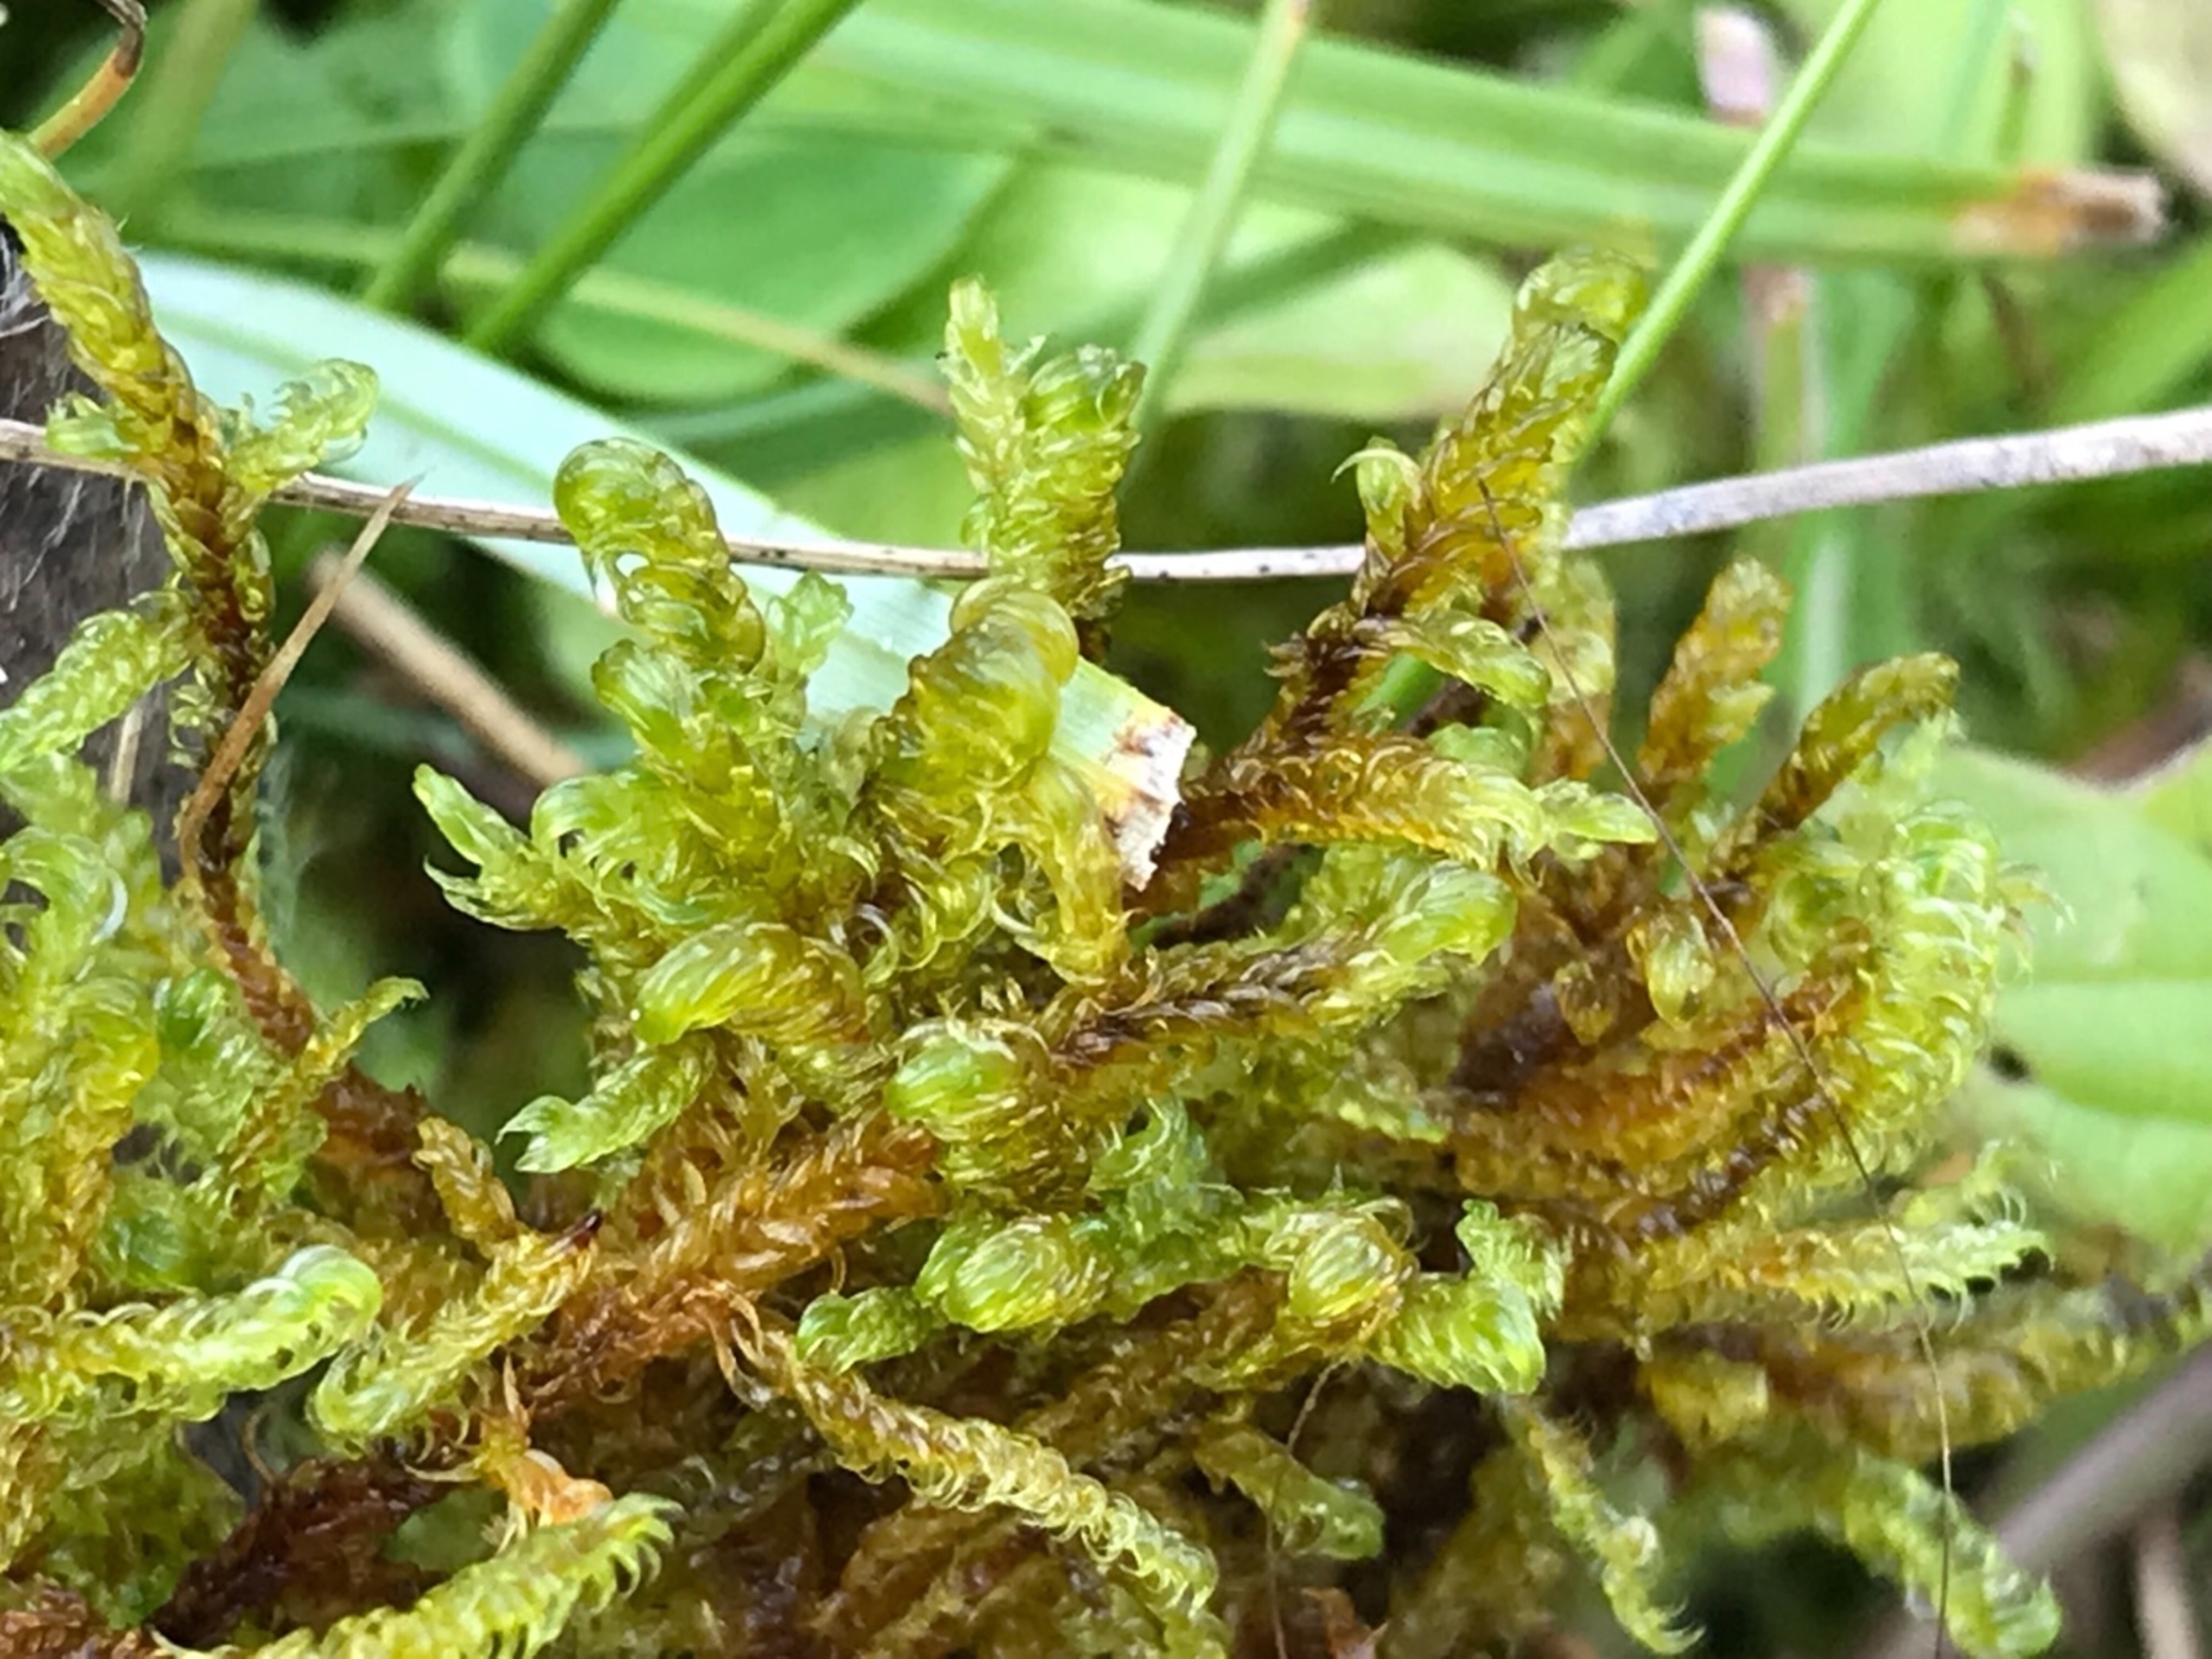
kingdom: Plantae
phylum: Bryophyta
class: Bryopsida
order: Hypnales
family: Scorpidiaceae
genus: Scorpidium
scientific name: Scorpidium cossonii
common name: Grøn krumblad
